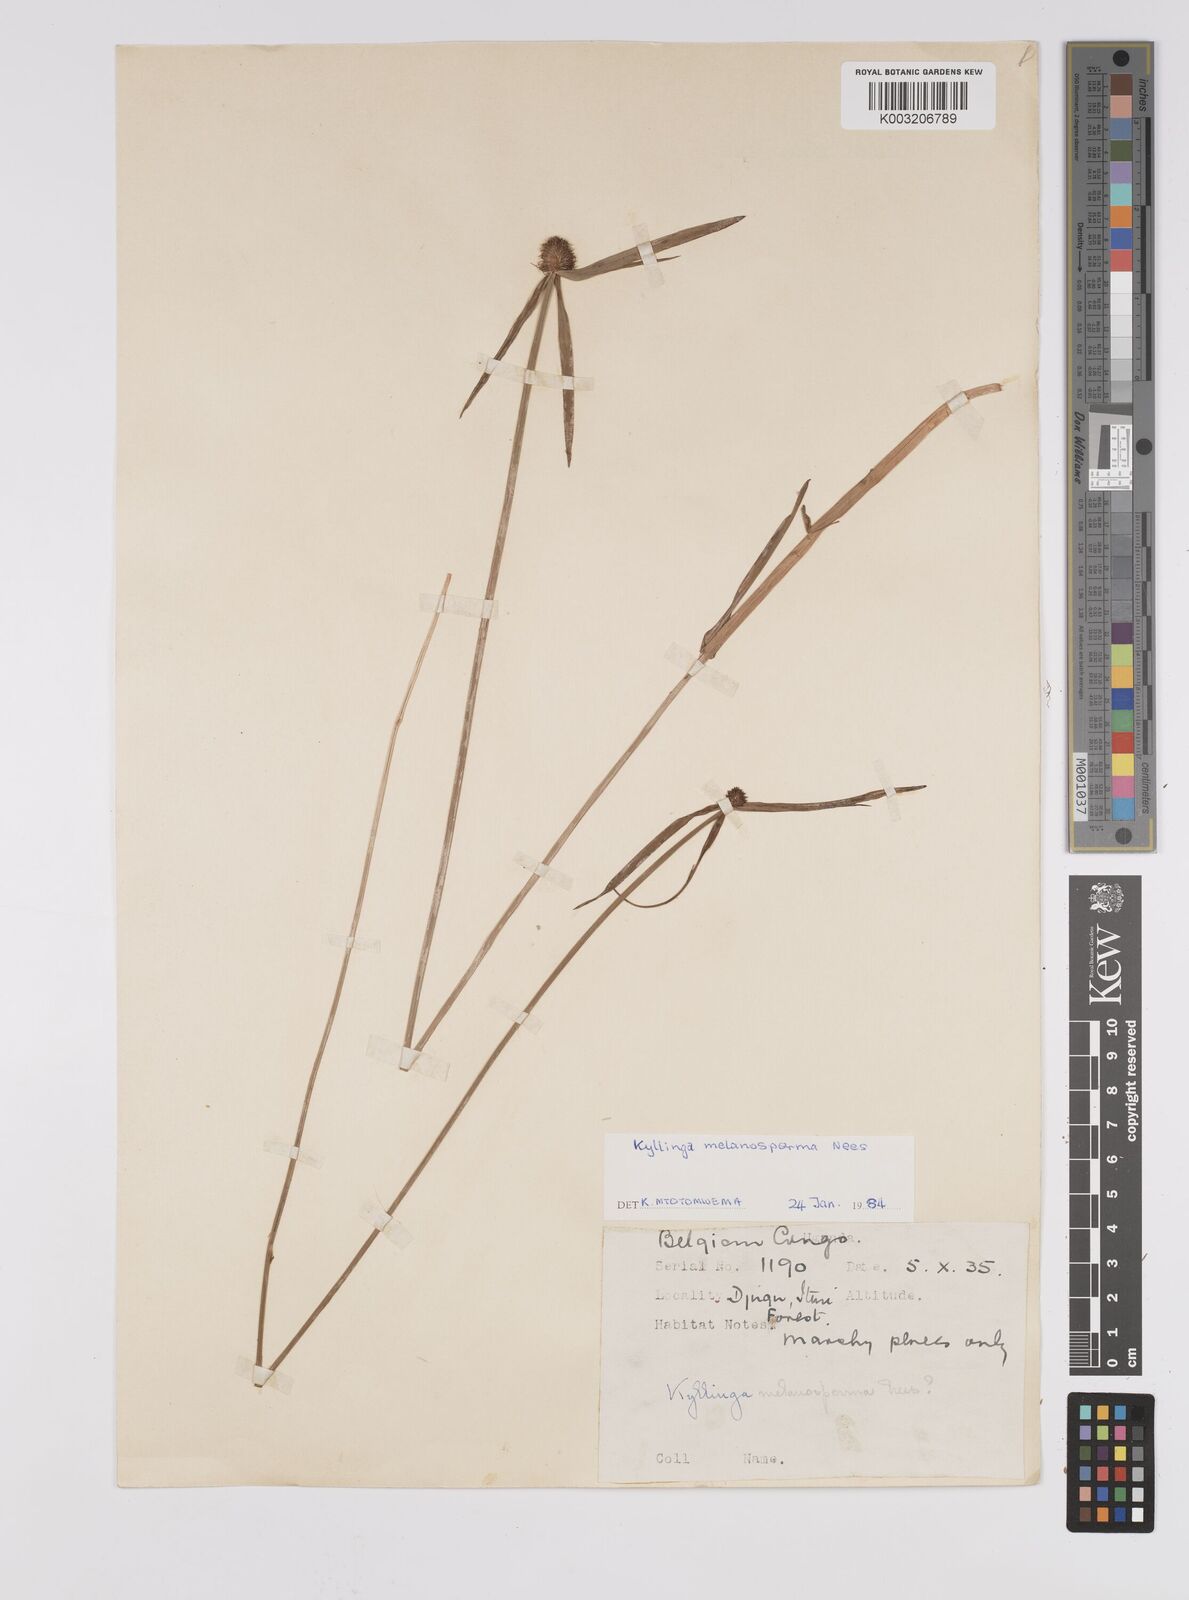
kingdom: Plantae
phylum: Tracheophyta
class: Liliopsida
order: Poales
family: Cyperaceae
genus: Cyperus
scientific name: Cyperus melanospermus
